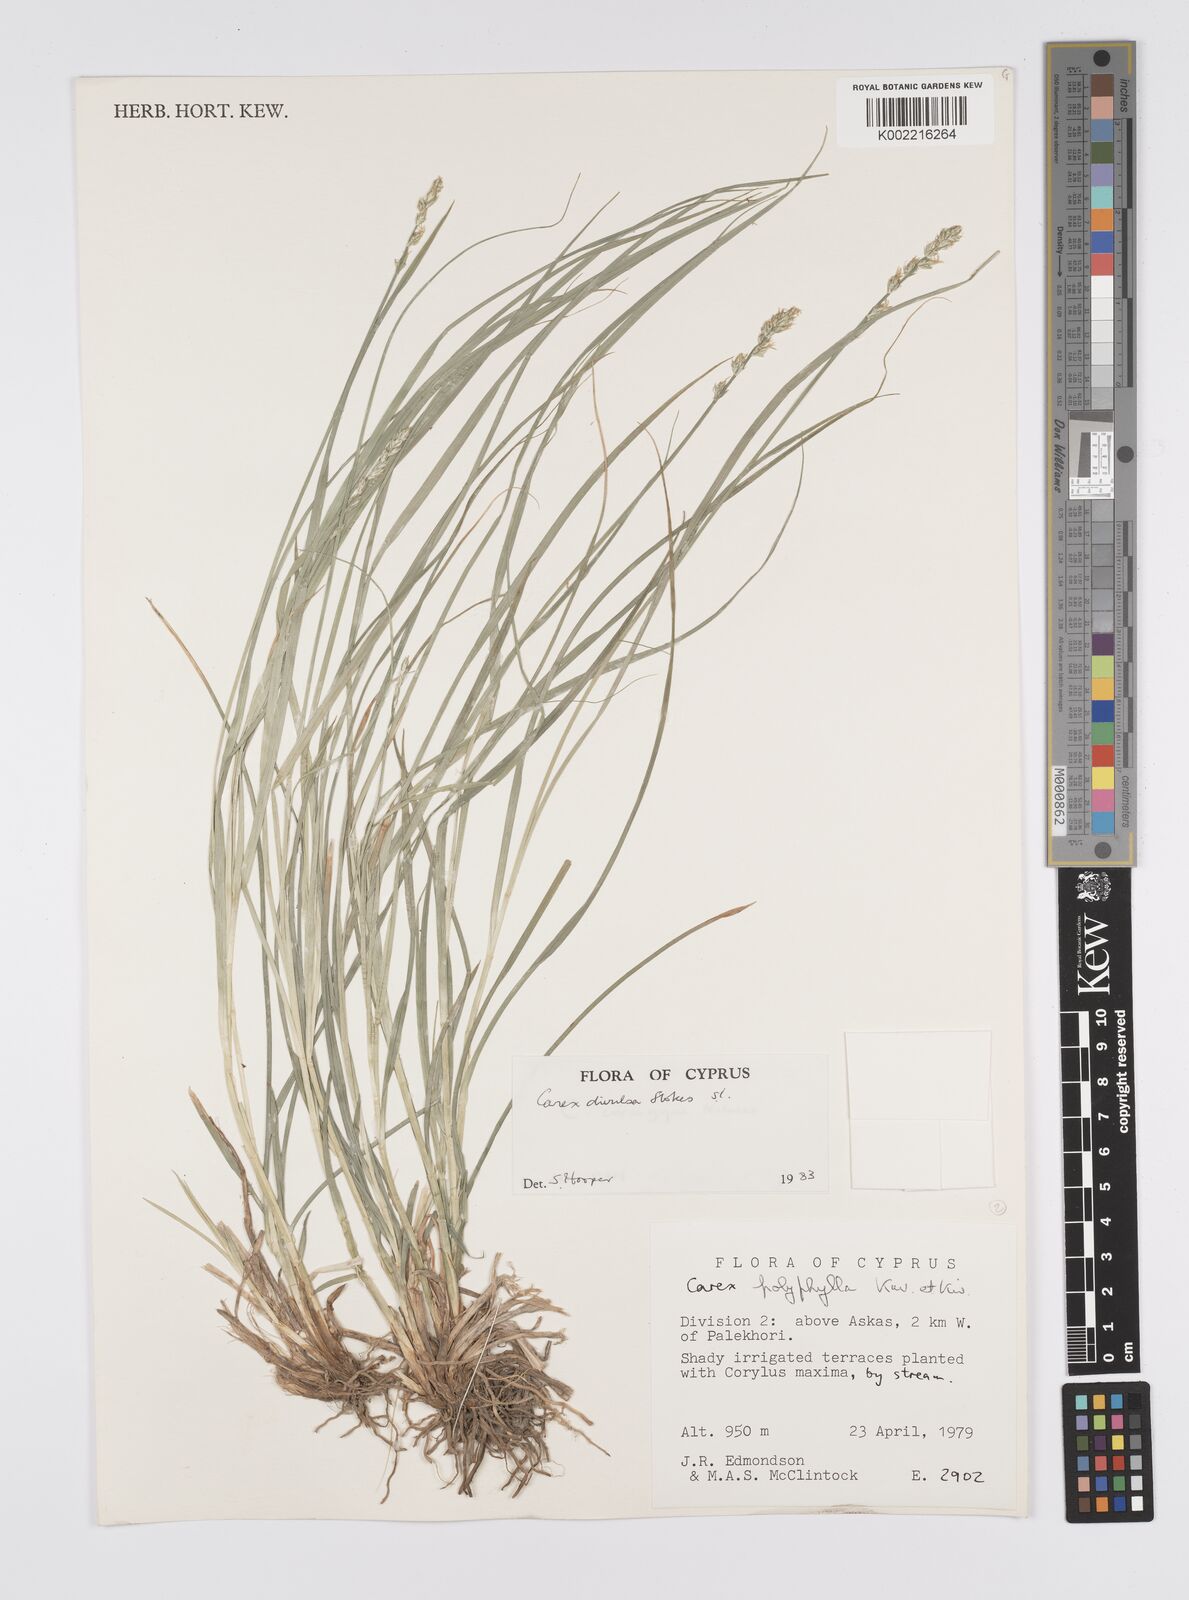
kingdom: Plantae
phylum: Tracheophyta
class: Liliopsida
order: Poales
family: Cyperaceae
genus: Carex
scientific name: Carex divulsa
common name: Grassland sedge
